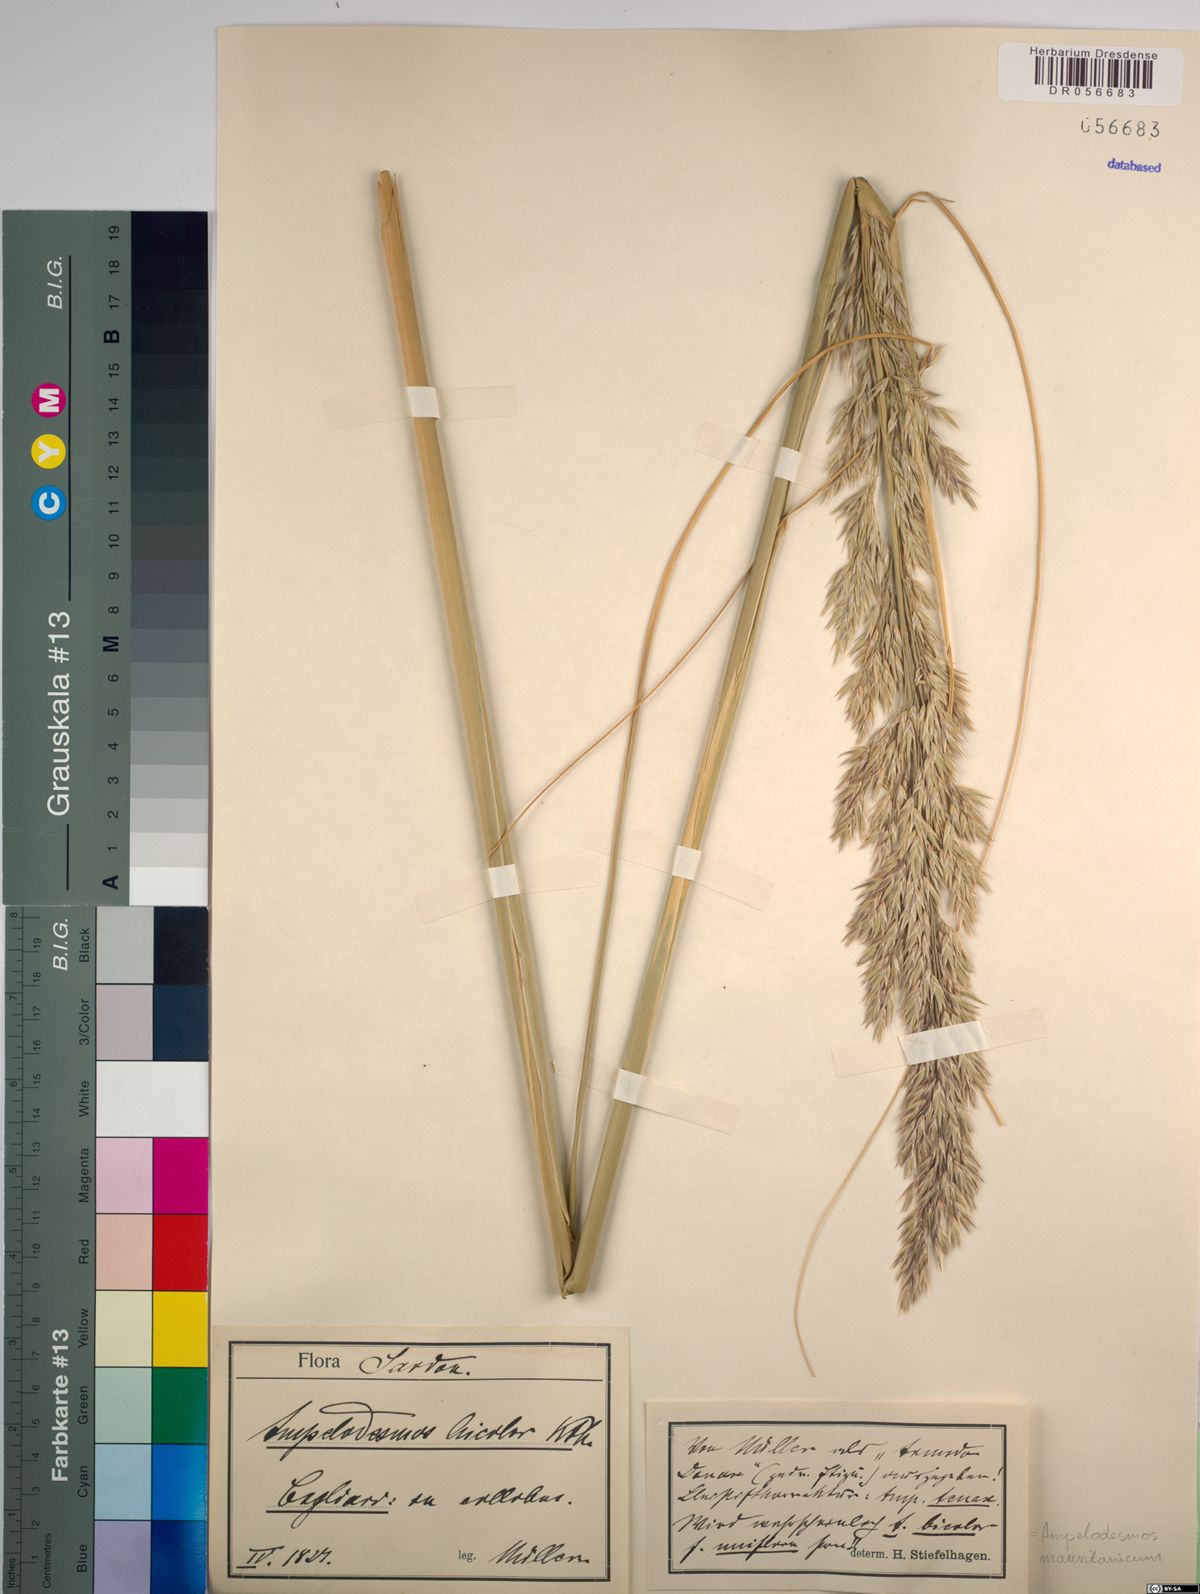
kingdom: Plantae
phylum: Tracheophyta
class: Liliopsida
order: Poales
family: Poaceae
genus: Ampelodesmos
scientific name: Ampelodesmos mauritanicus
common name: Mauritanian grass
